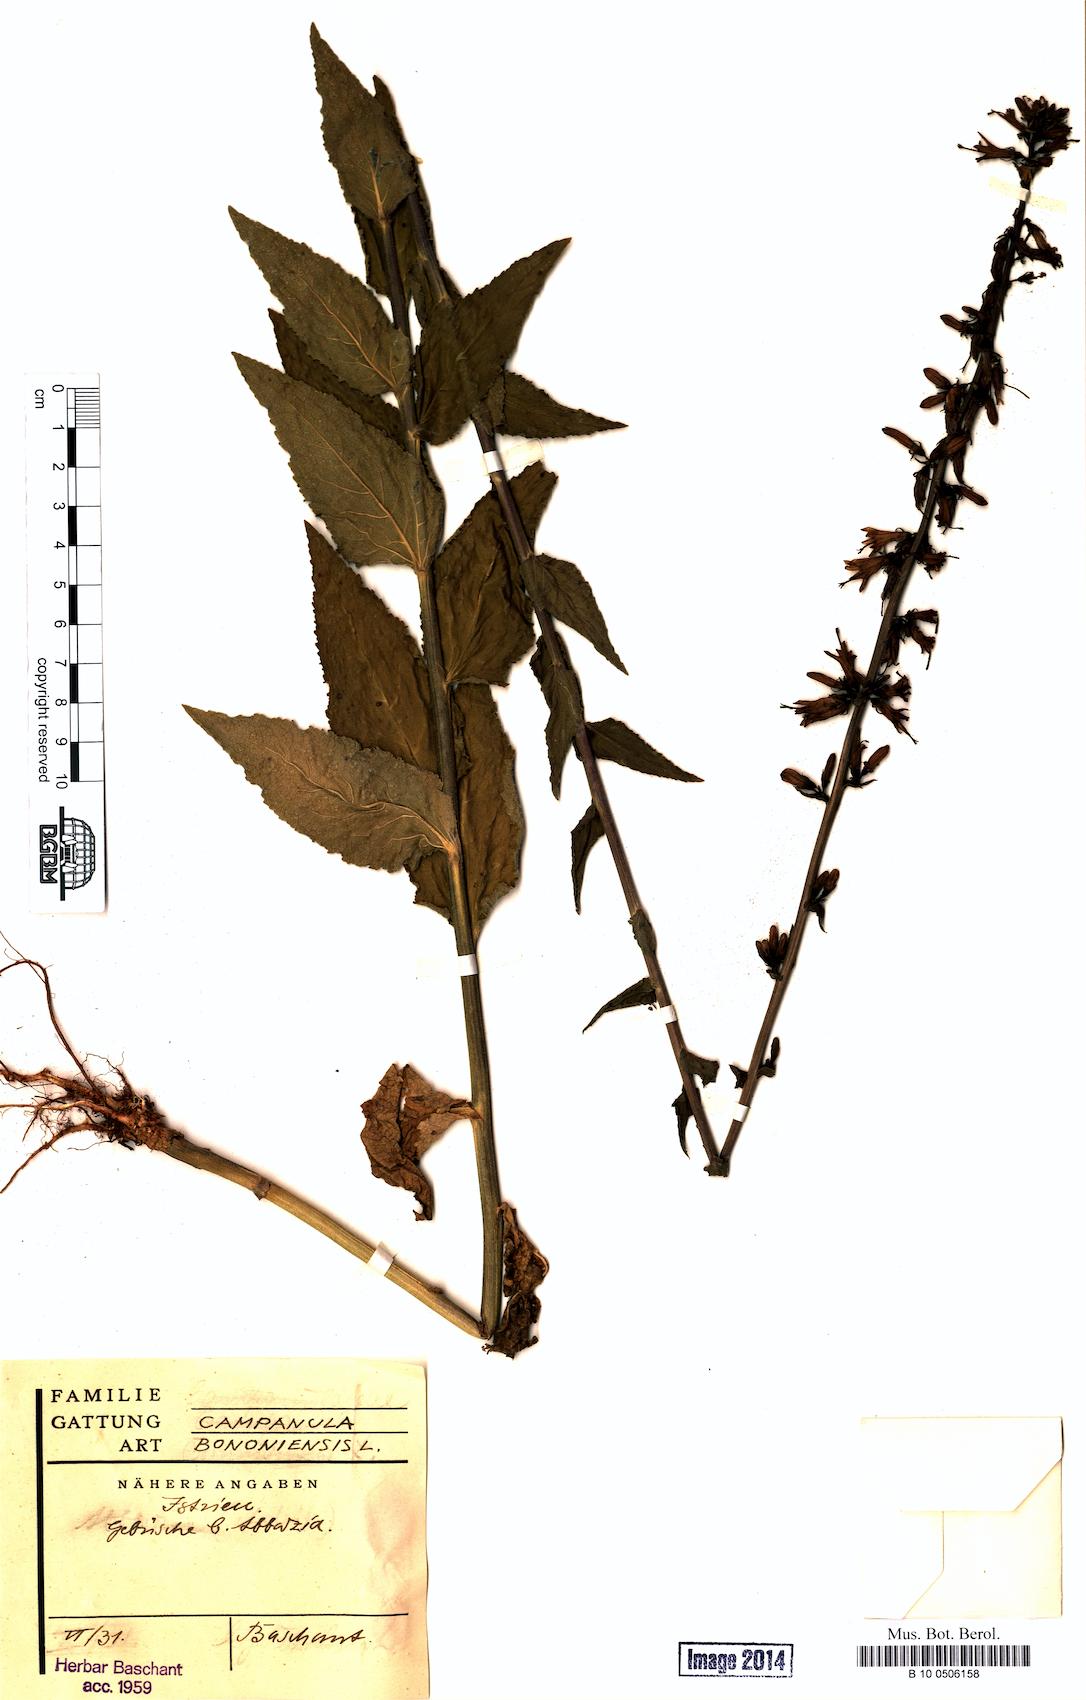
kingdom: Plantae
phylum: Tracheophyta
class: Magnoliopsida
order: Asterales
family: Campanulaceae
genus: Campanula
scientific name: Campanula bononiensis
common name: Pale bellflower
